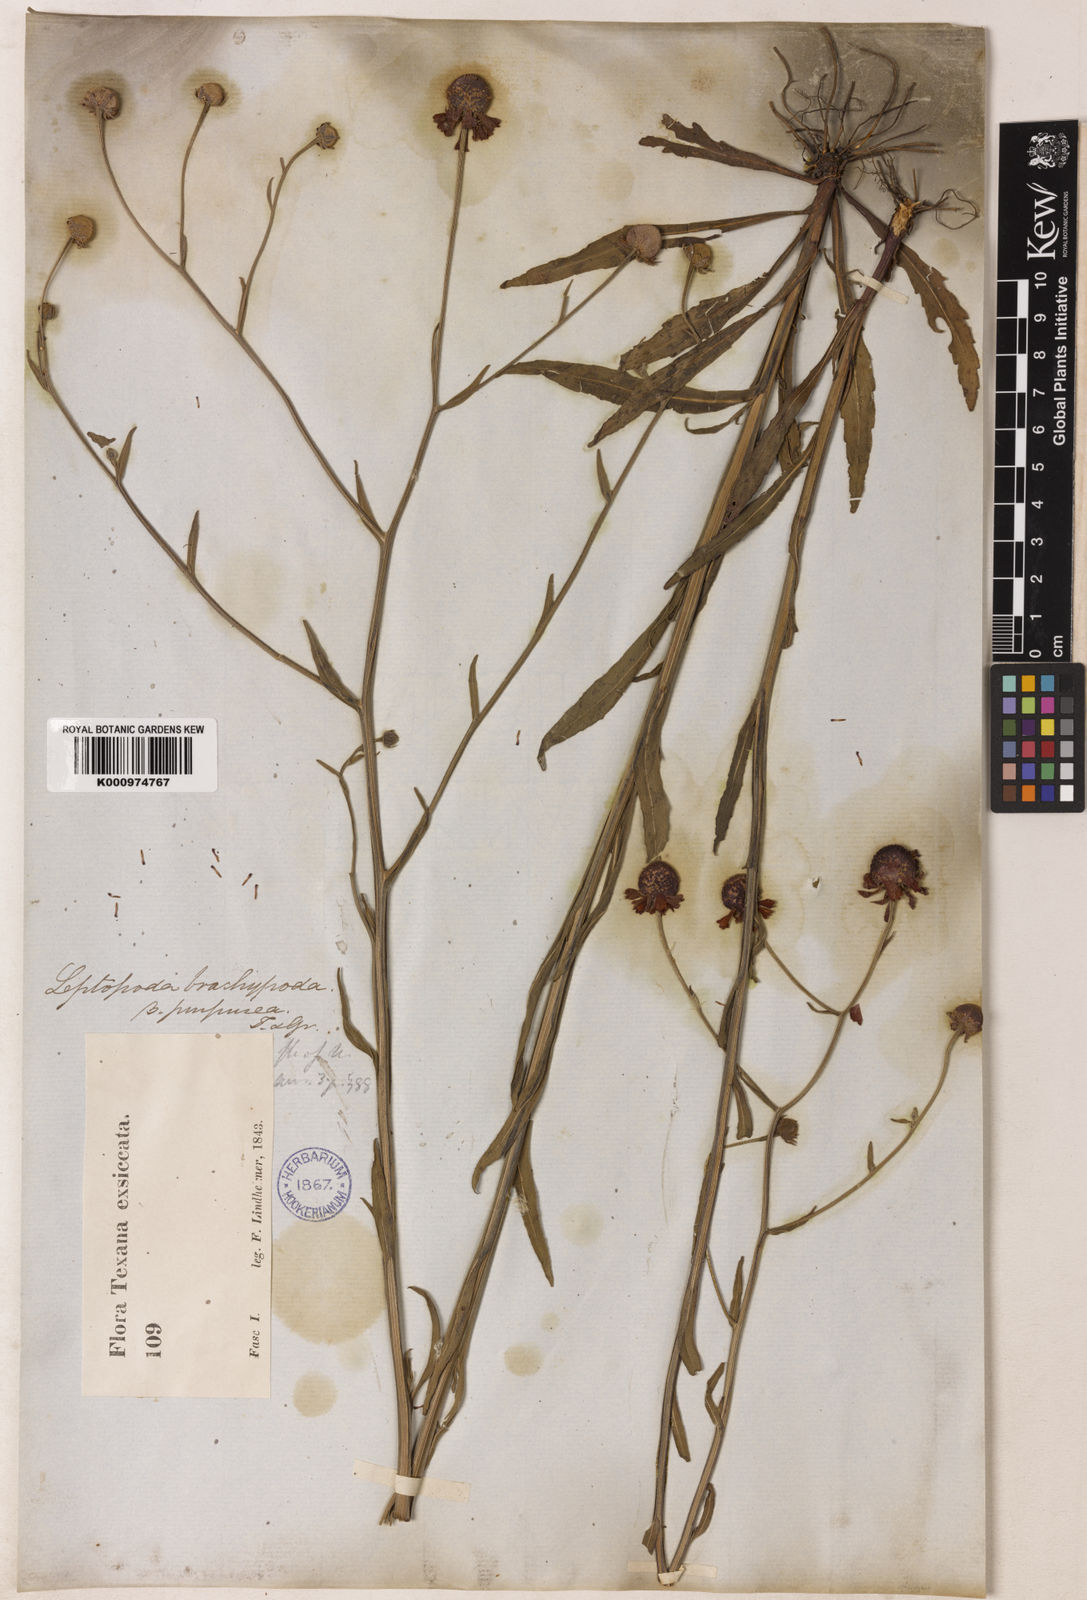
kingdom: Plantae
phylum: Tracheophyta
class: Magnoliopsida
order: Asterales
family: Asteraceae
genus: Helenium
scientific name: Helenium flexuosum
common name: Naked-flowered sneezeweed
